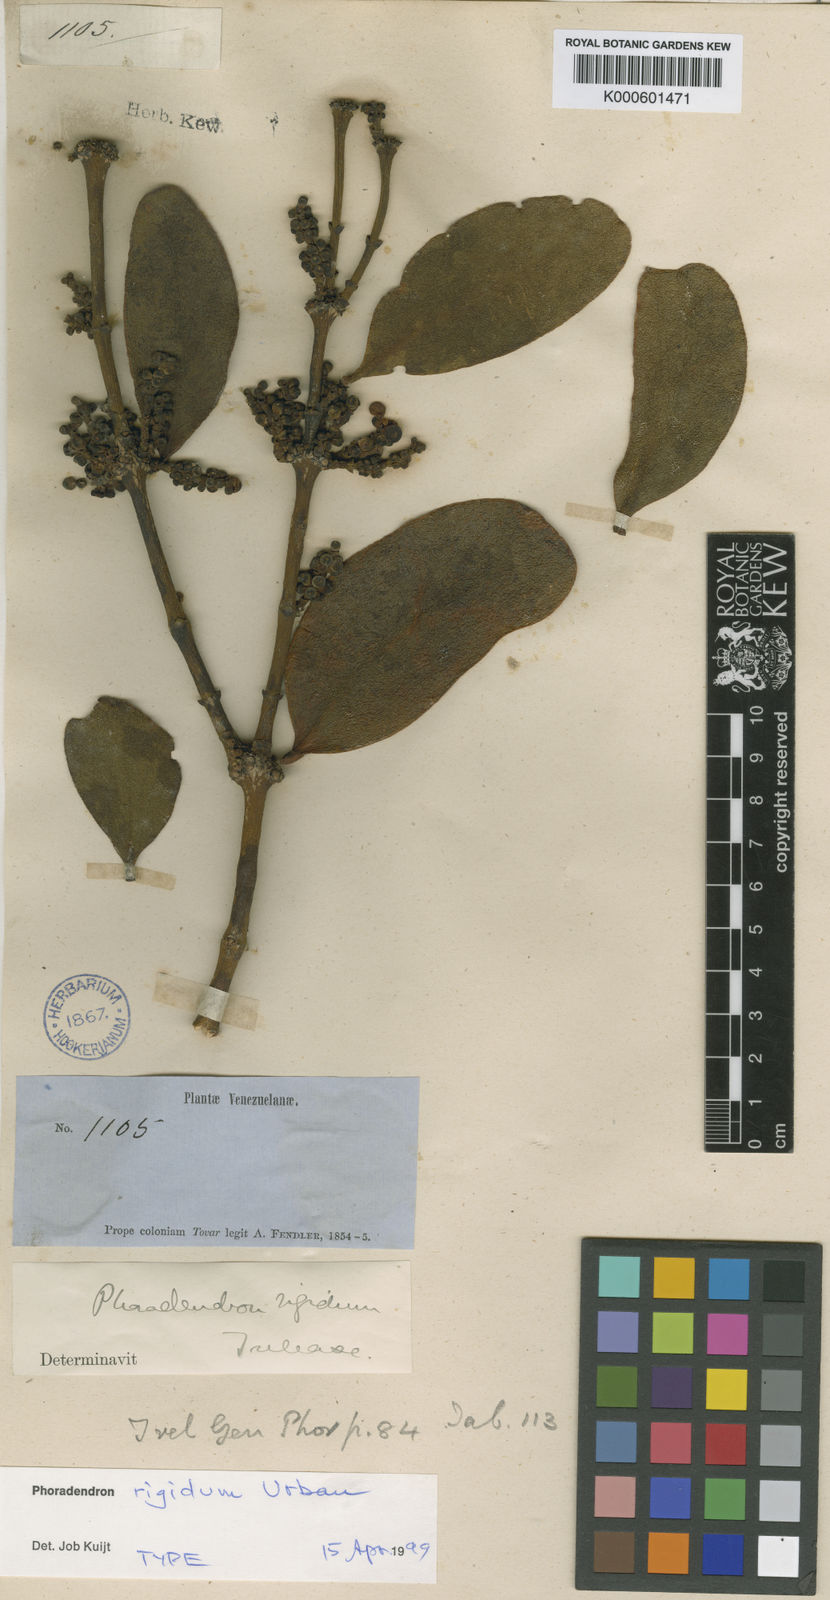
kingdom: Plantae
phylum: Tracheophyta
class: Magnoliopsida
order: Santalales
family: Viscaceae
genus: Phoradendron
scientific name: Phoradendron rigidum
